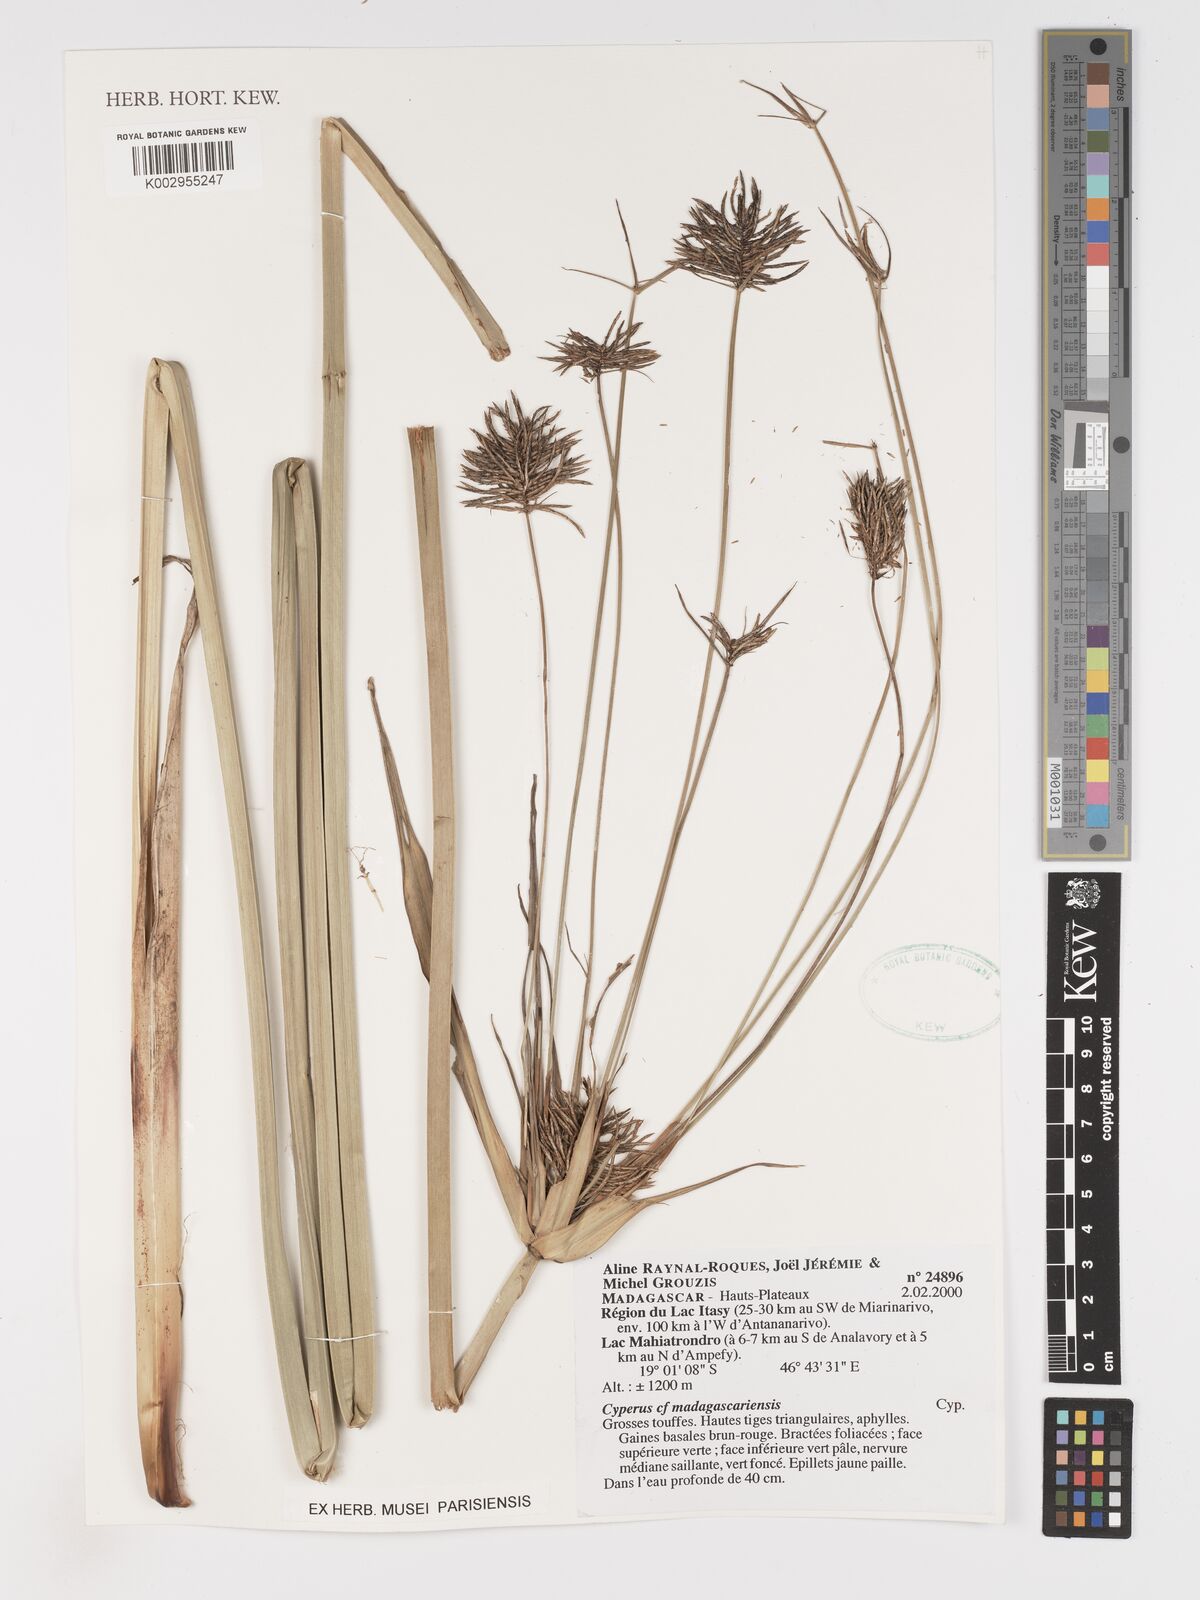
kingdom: Plantae
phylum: Tracheophyta
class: Liliopsida
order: Poales
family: Cyperaceae
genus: Cyperus
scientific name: Cyperus papyrus
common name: Papyrus
